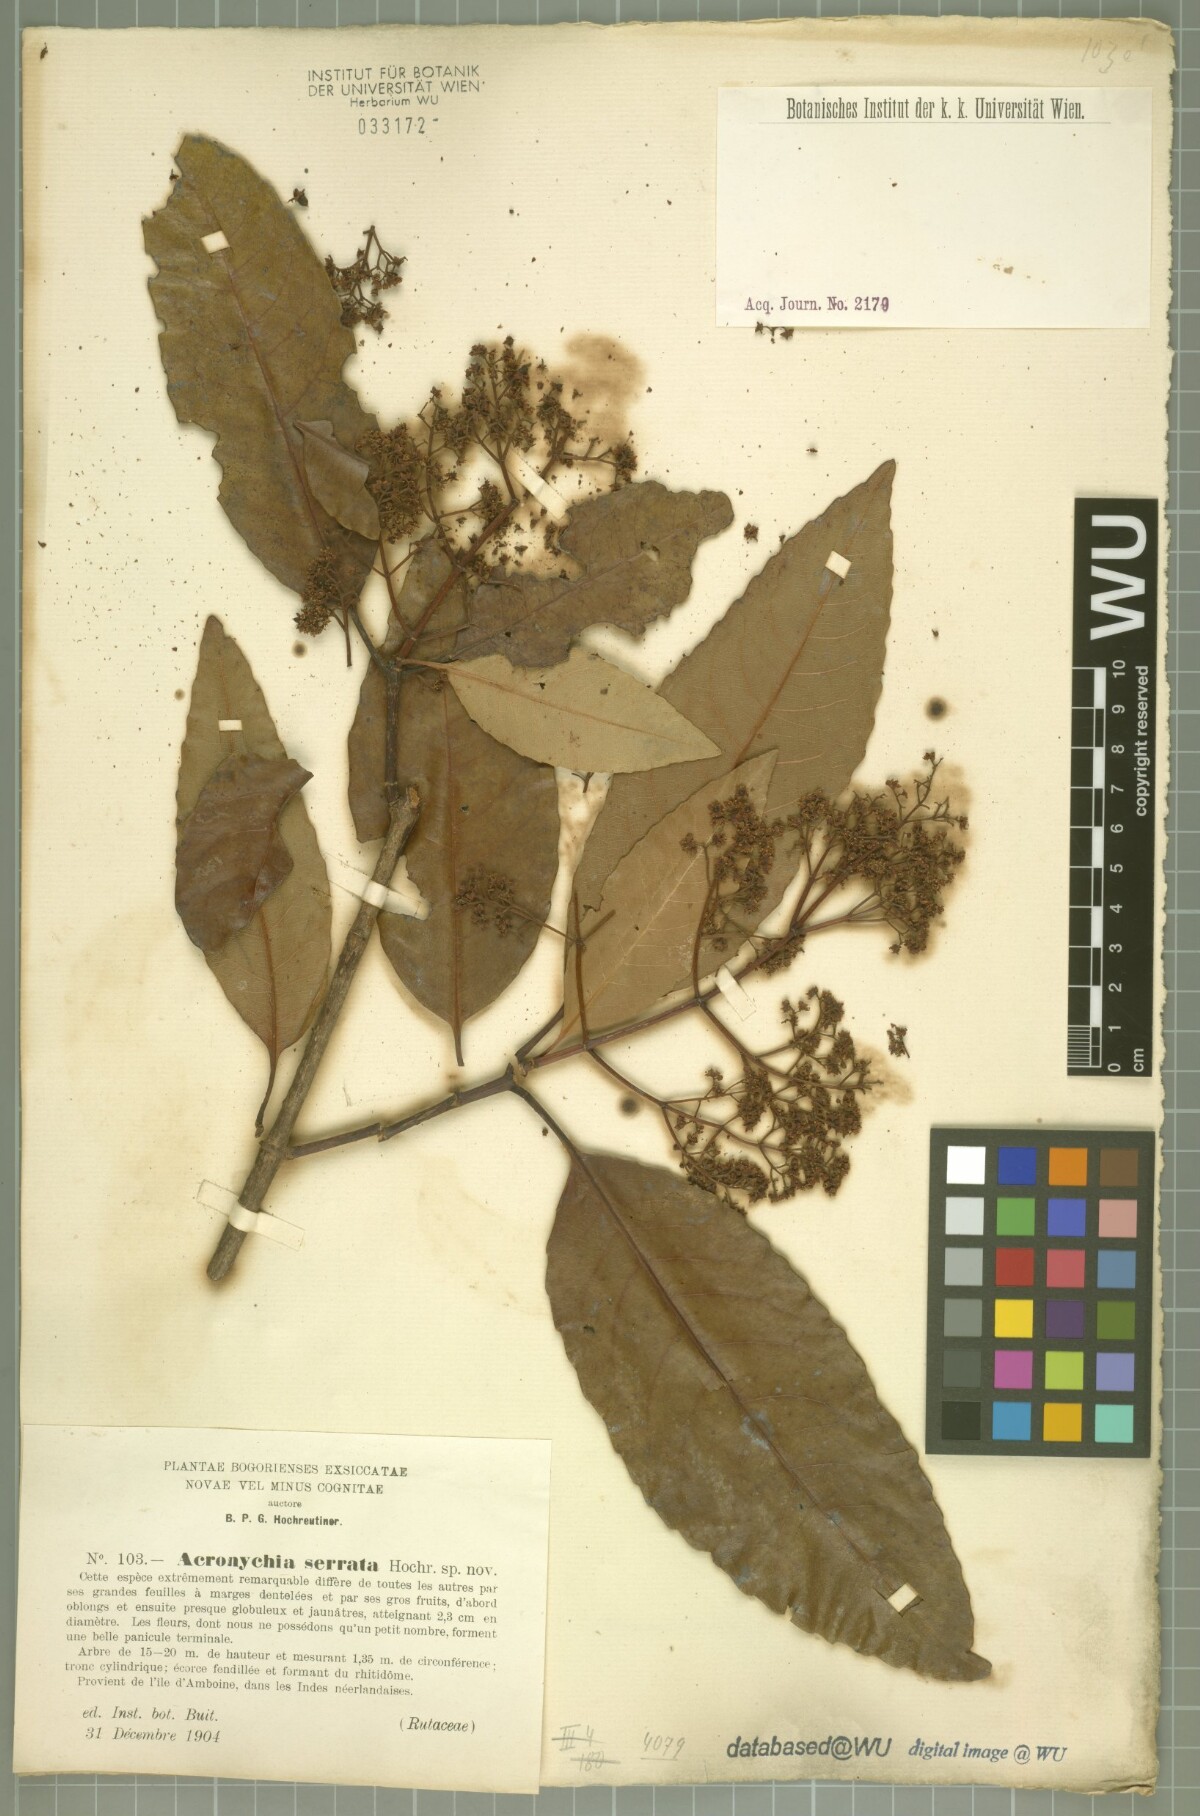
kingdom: Plantae
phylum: Tracheophyta
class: Magnoliopsida
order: Oxalidales
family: Cunoniaceae
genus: Schizomeria
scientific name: Schizomeria serrata
